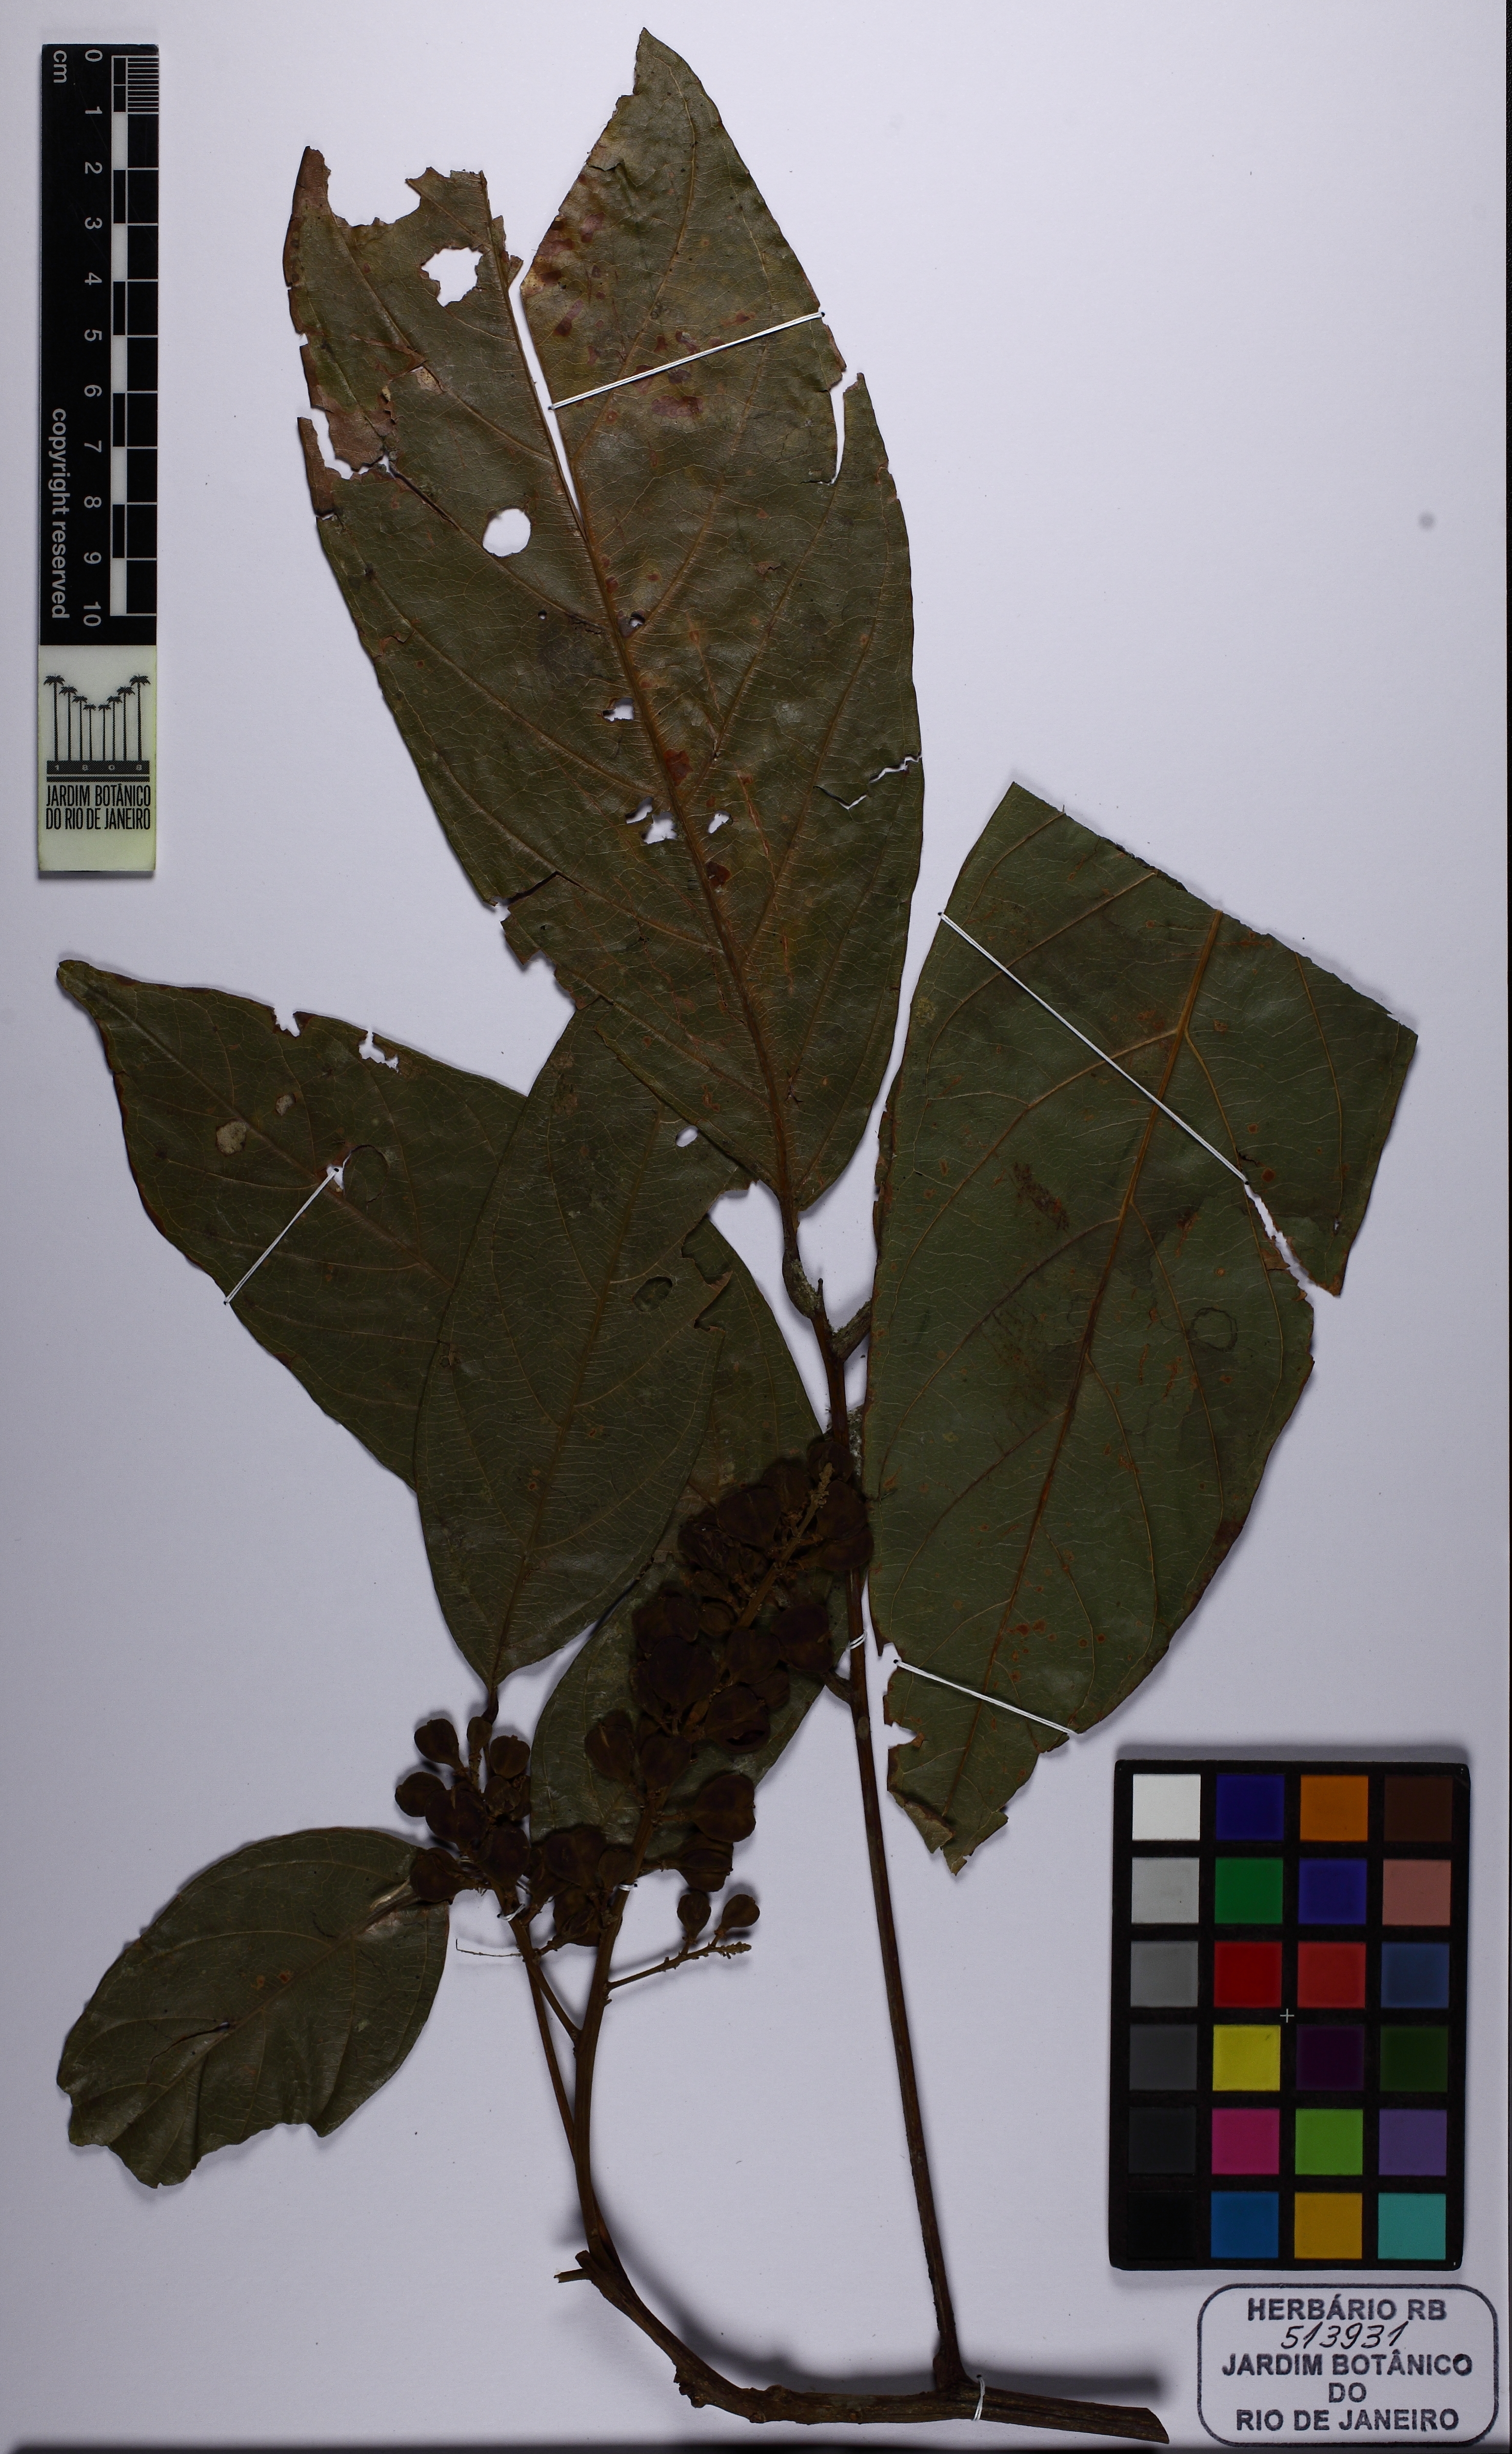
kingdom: Plantae
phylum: Tracheophyta
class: Magnoliopsida
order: Sapindales
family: Sapindaceae
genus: Cupania
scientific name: Cupania
